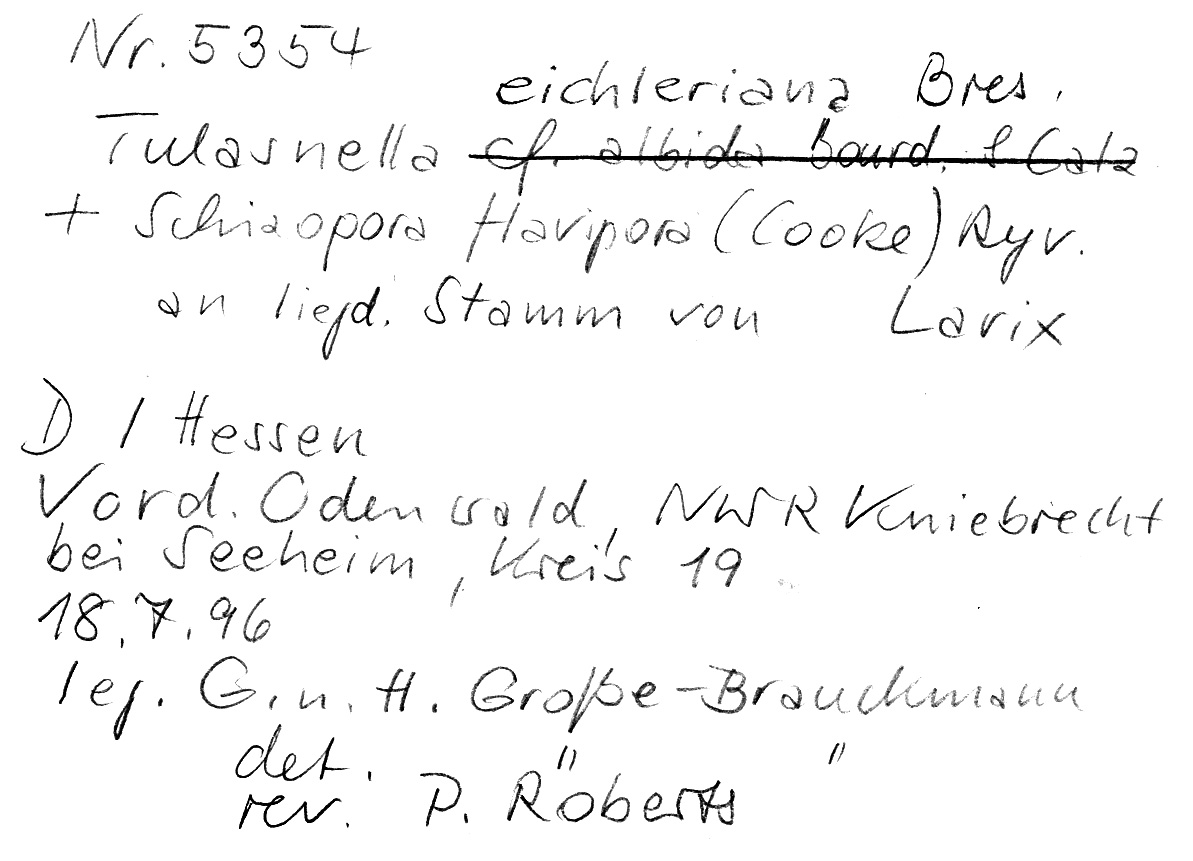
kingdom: Plantae
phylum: Tracheophyta
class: Pinopsida
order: Pinales
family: Pinaceae
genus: Larix
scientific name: Larix
